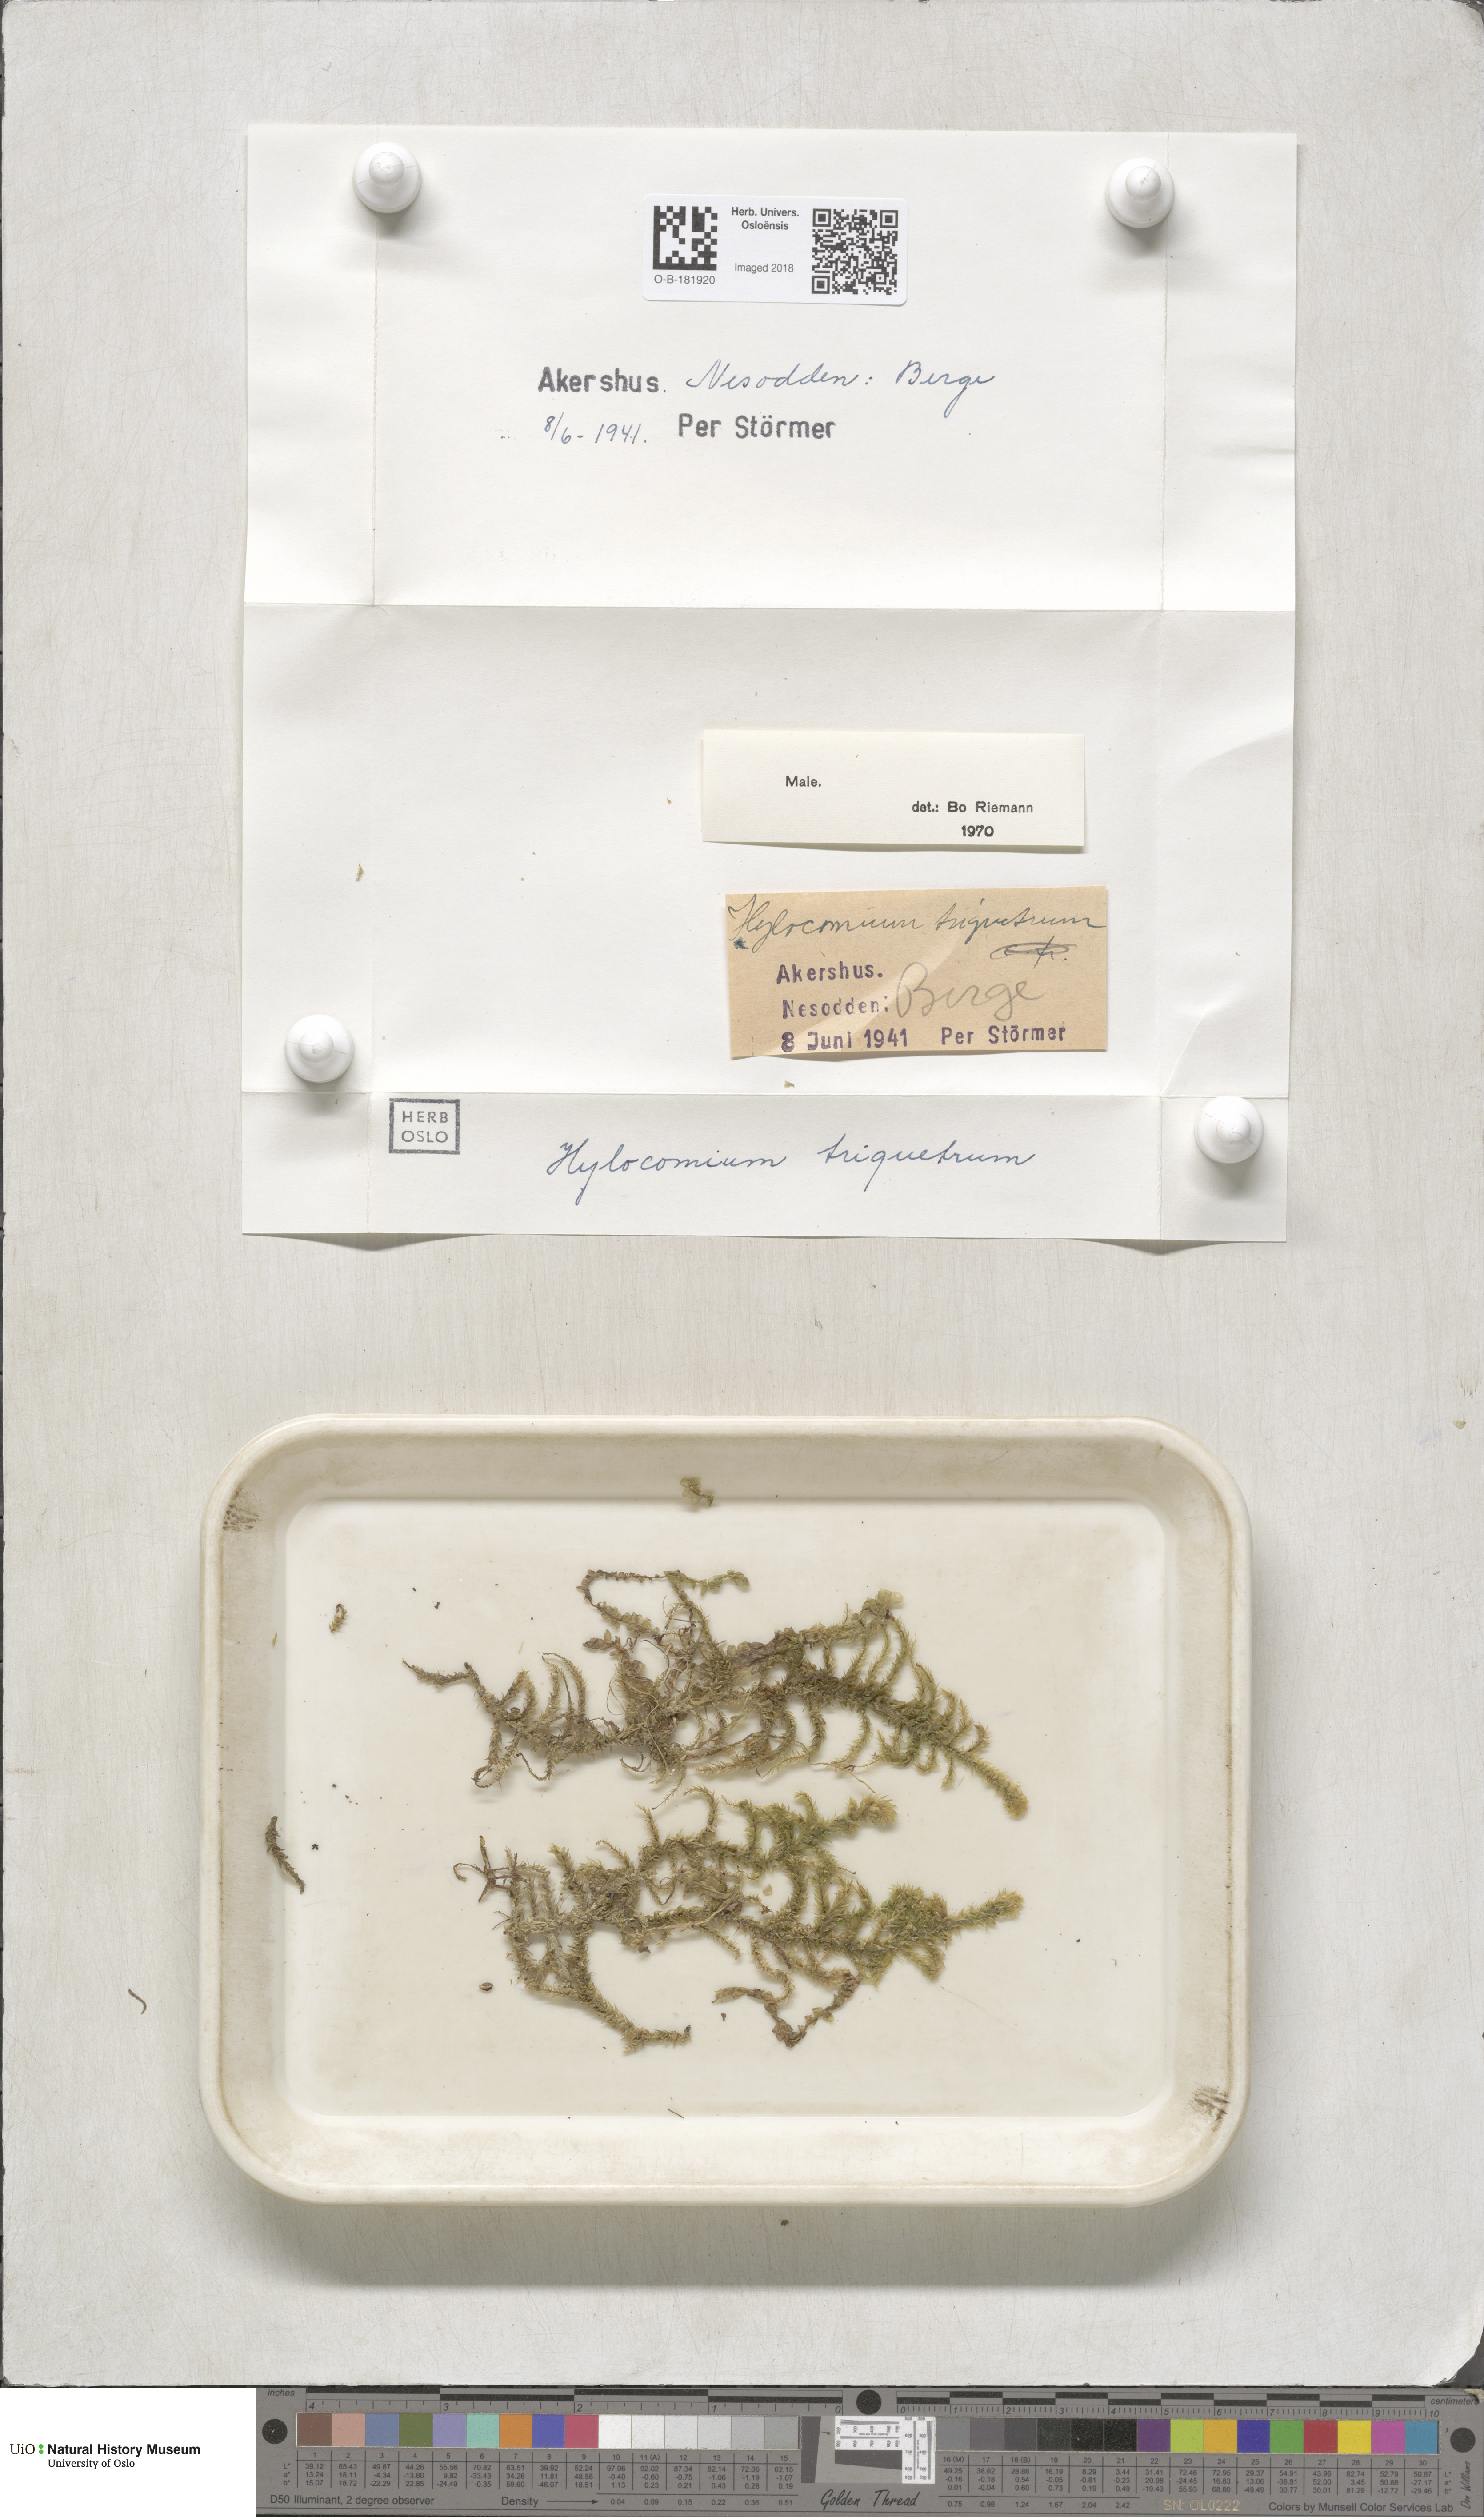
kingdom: Plantae
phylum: Bryophyta
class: Bryopsida
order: Hypnales
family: Hylocomiaceae
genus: Hylocomiadelphus
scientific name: Hylocomiadelphus triquetrus
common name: Rough goose neck moss
